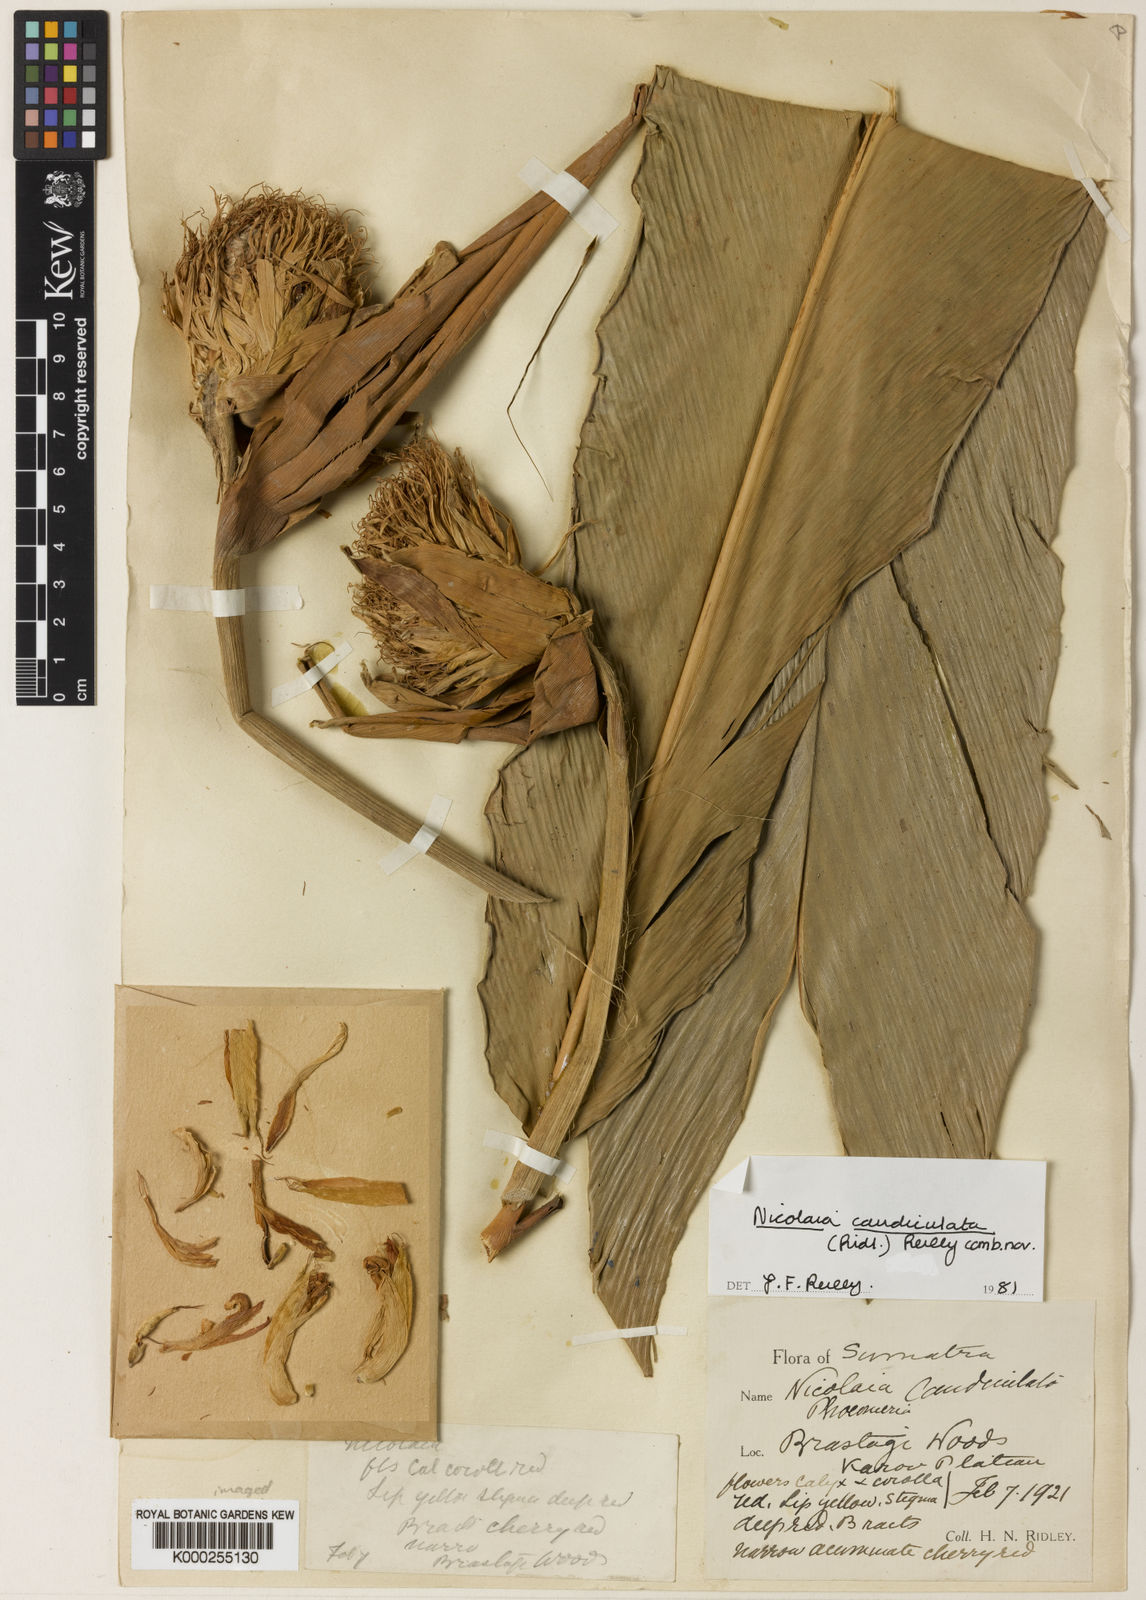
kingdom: Plantae
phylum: Tracheophyta
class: Liliopsida
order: Zingiberales
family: Zingiberaceae
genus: Etlingera
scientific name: Etlingera caudiculata
